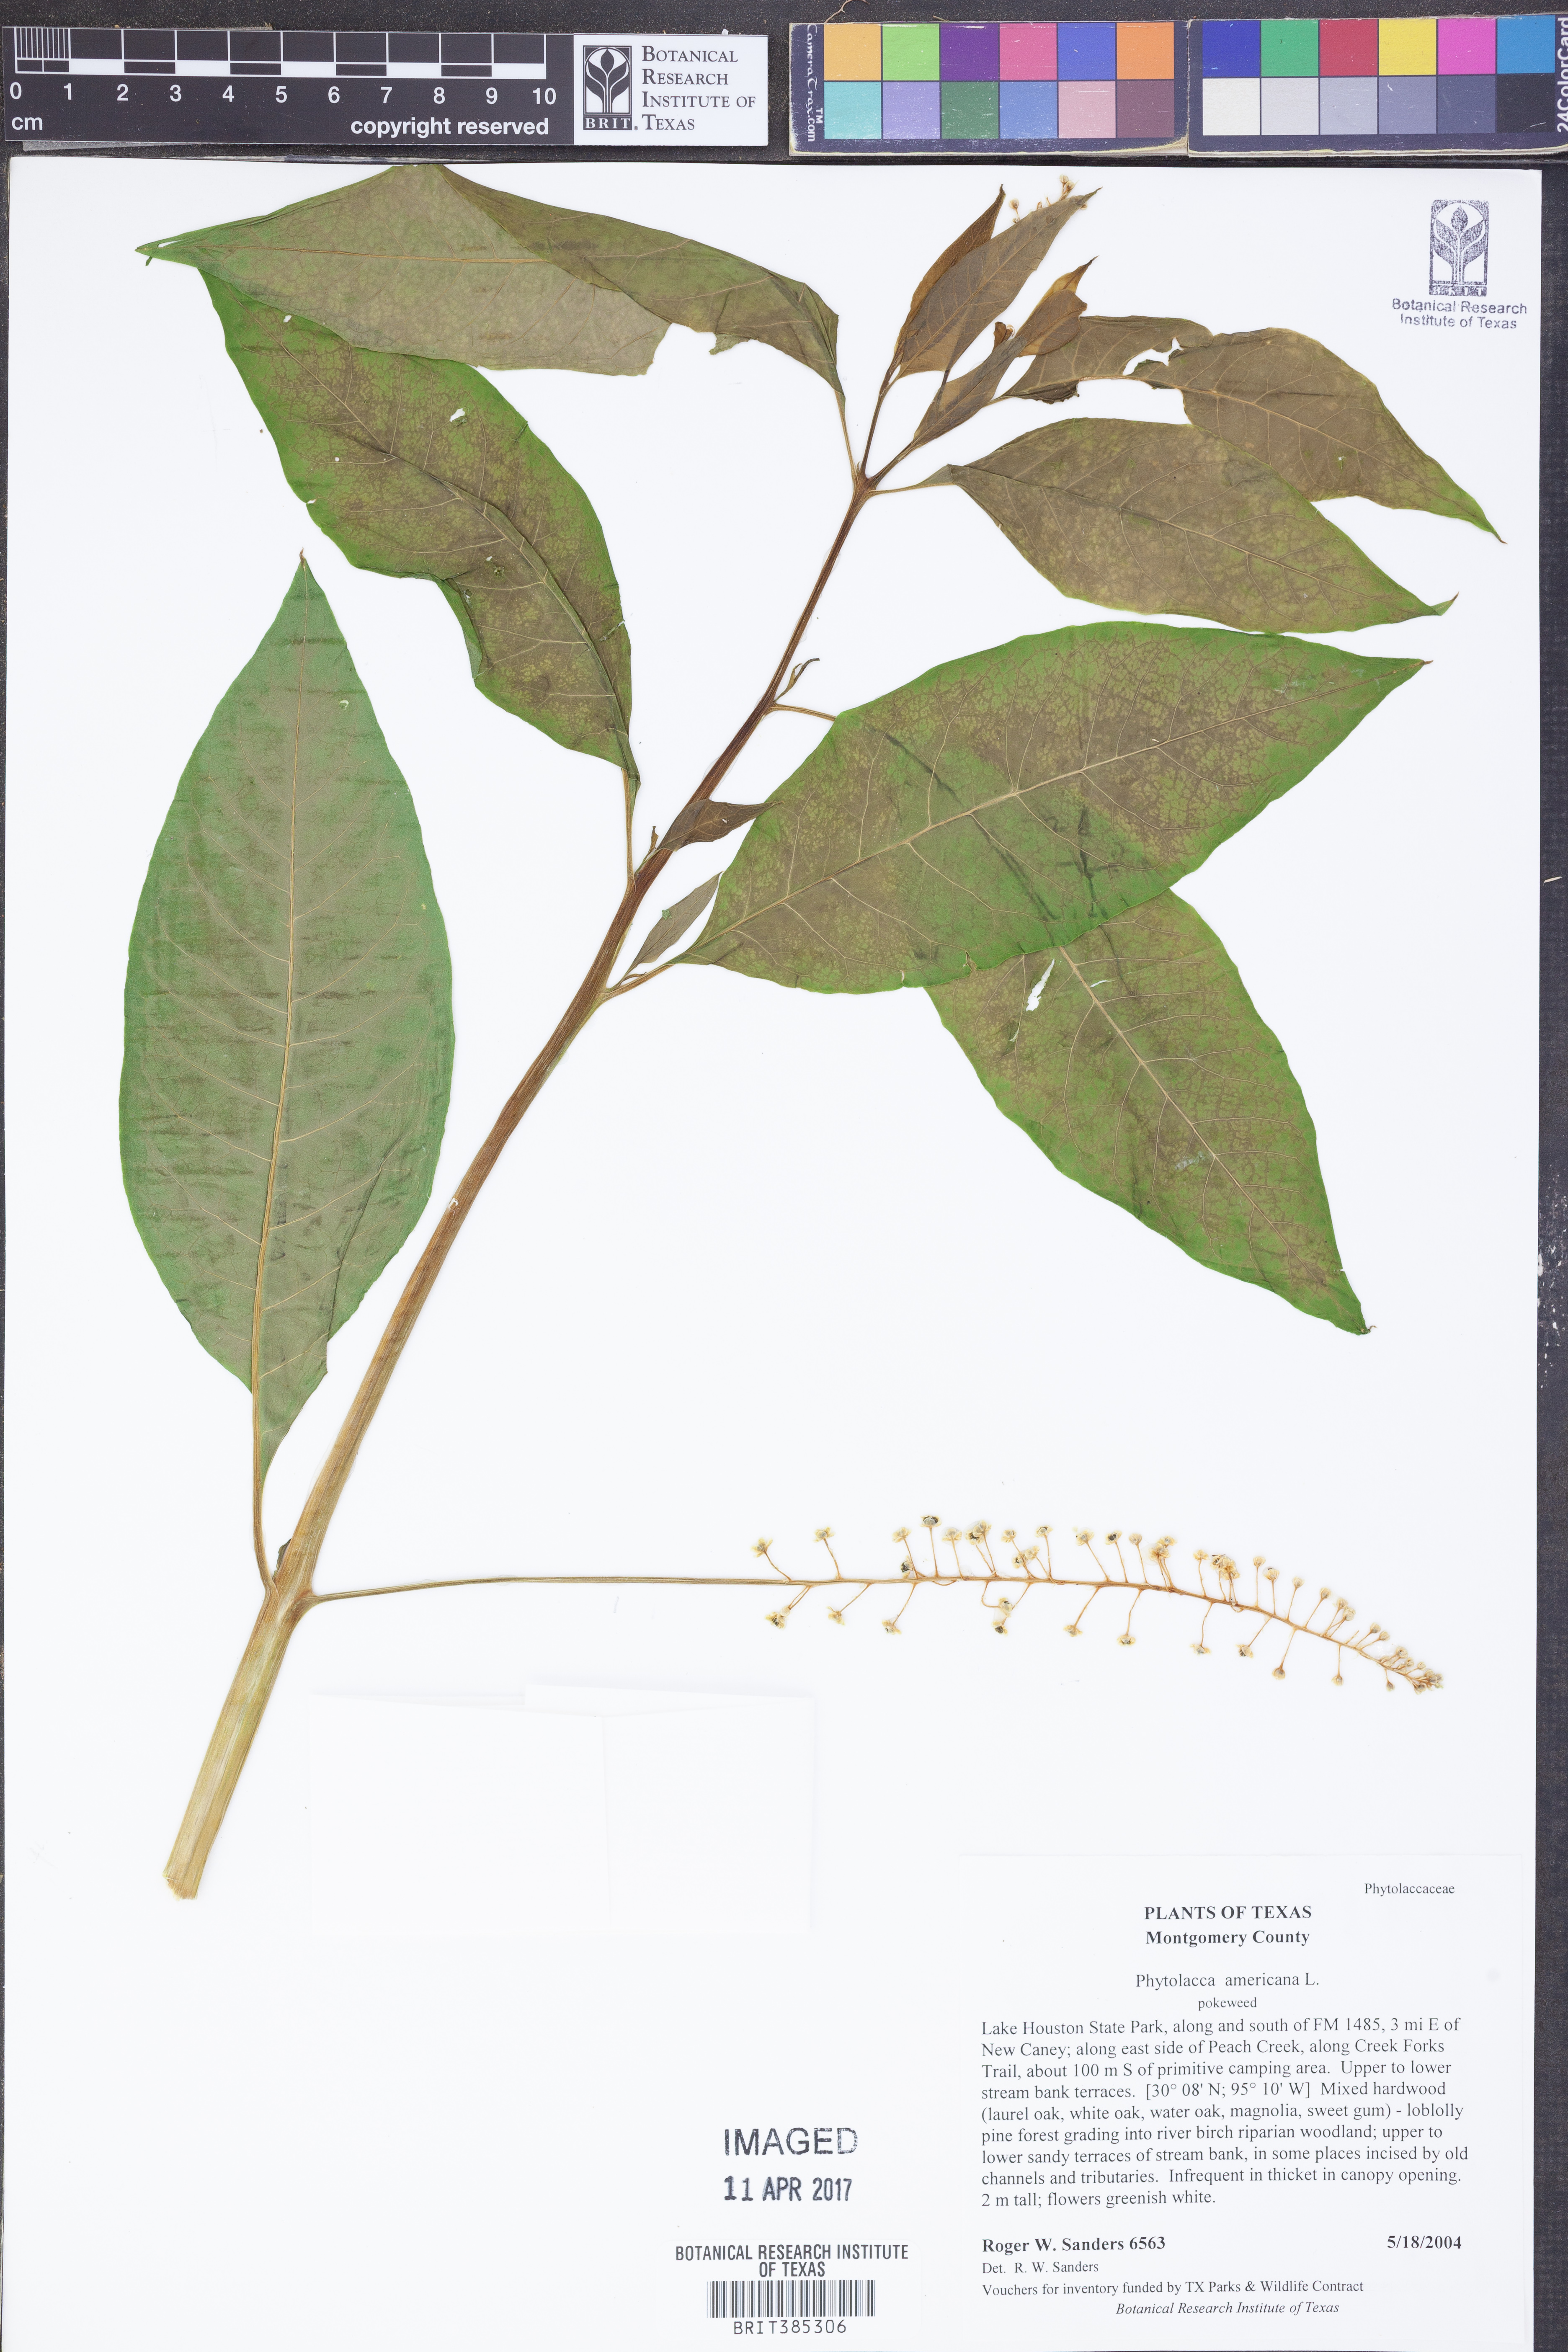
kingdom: Plantae
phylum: Tracheophyta
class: Magnoliopsida
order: Caryophyllales
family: Phytolaccaceae
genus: Phytolacca
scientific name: Phytolacca americana
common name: American pokeweed
